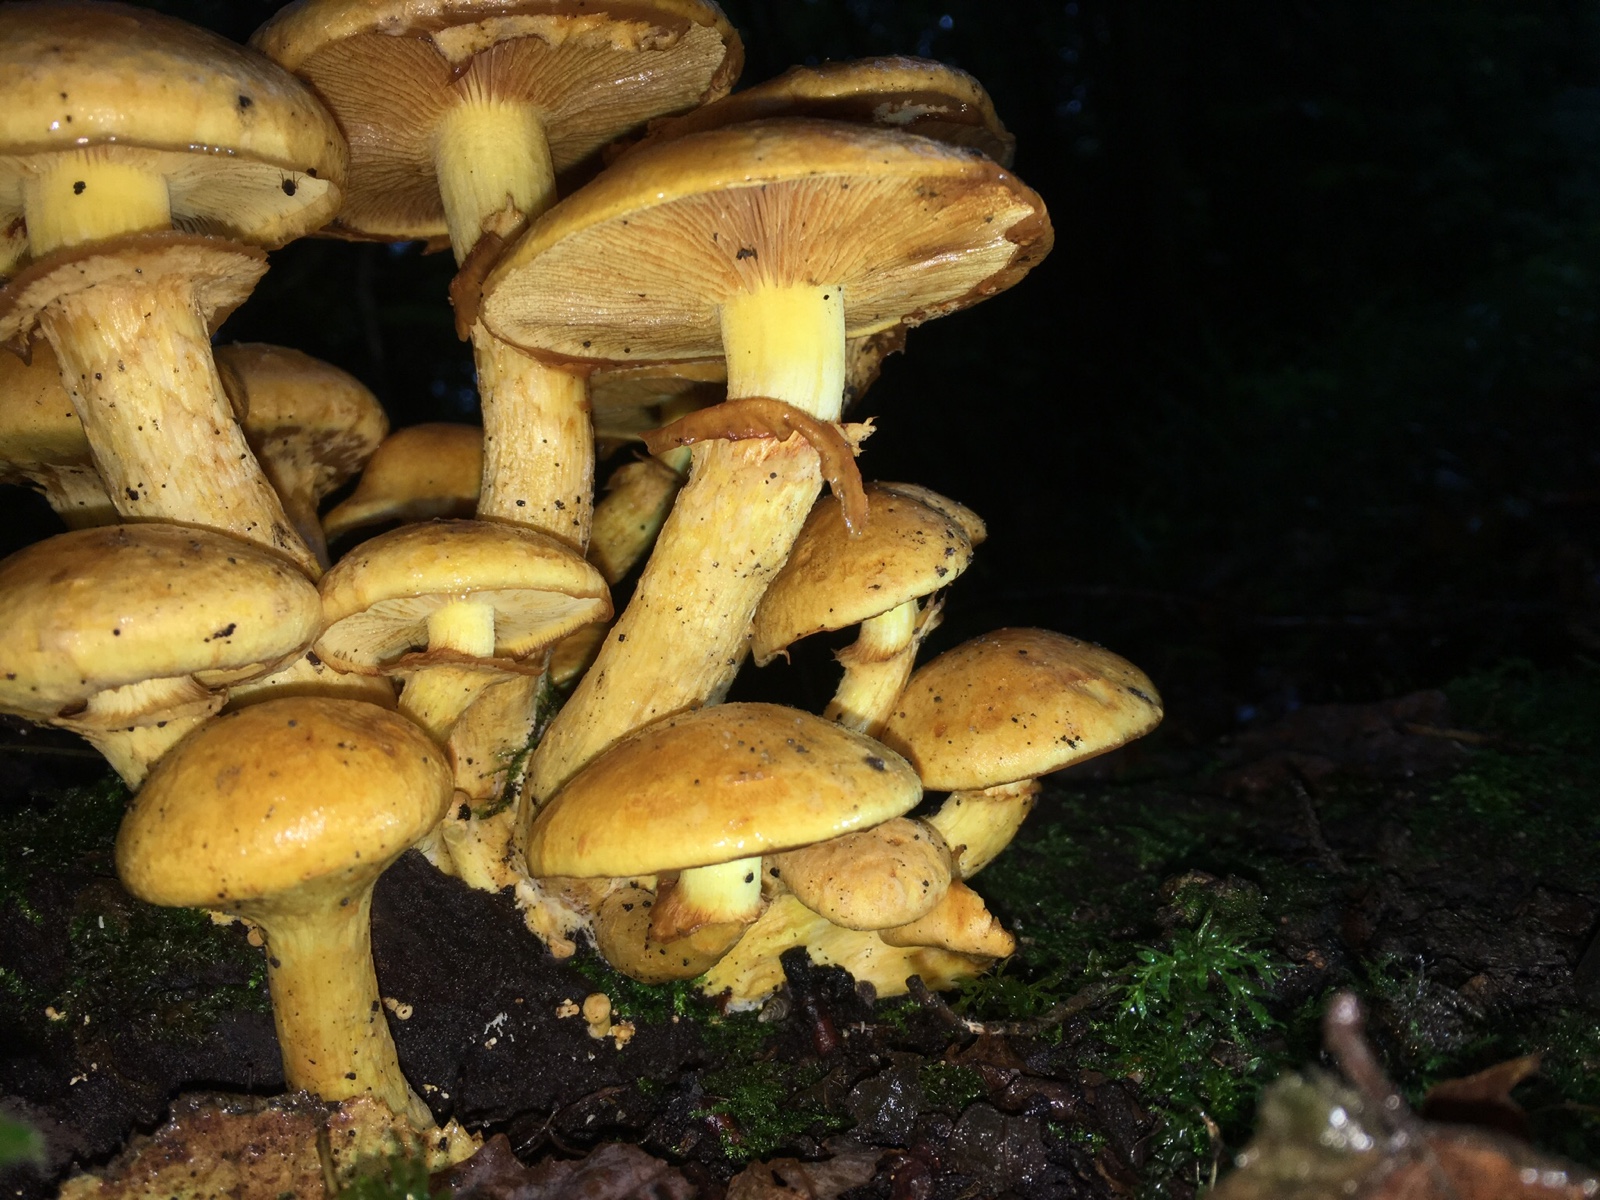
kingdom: Fungi
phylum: Basidiomycota
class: Agaricomycetes
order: Agaricales
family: Hymenogastraceae
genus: Gymnopilus
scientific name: Gymnopilus spectabilis
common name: fibret flammehat
